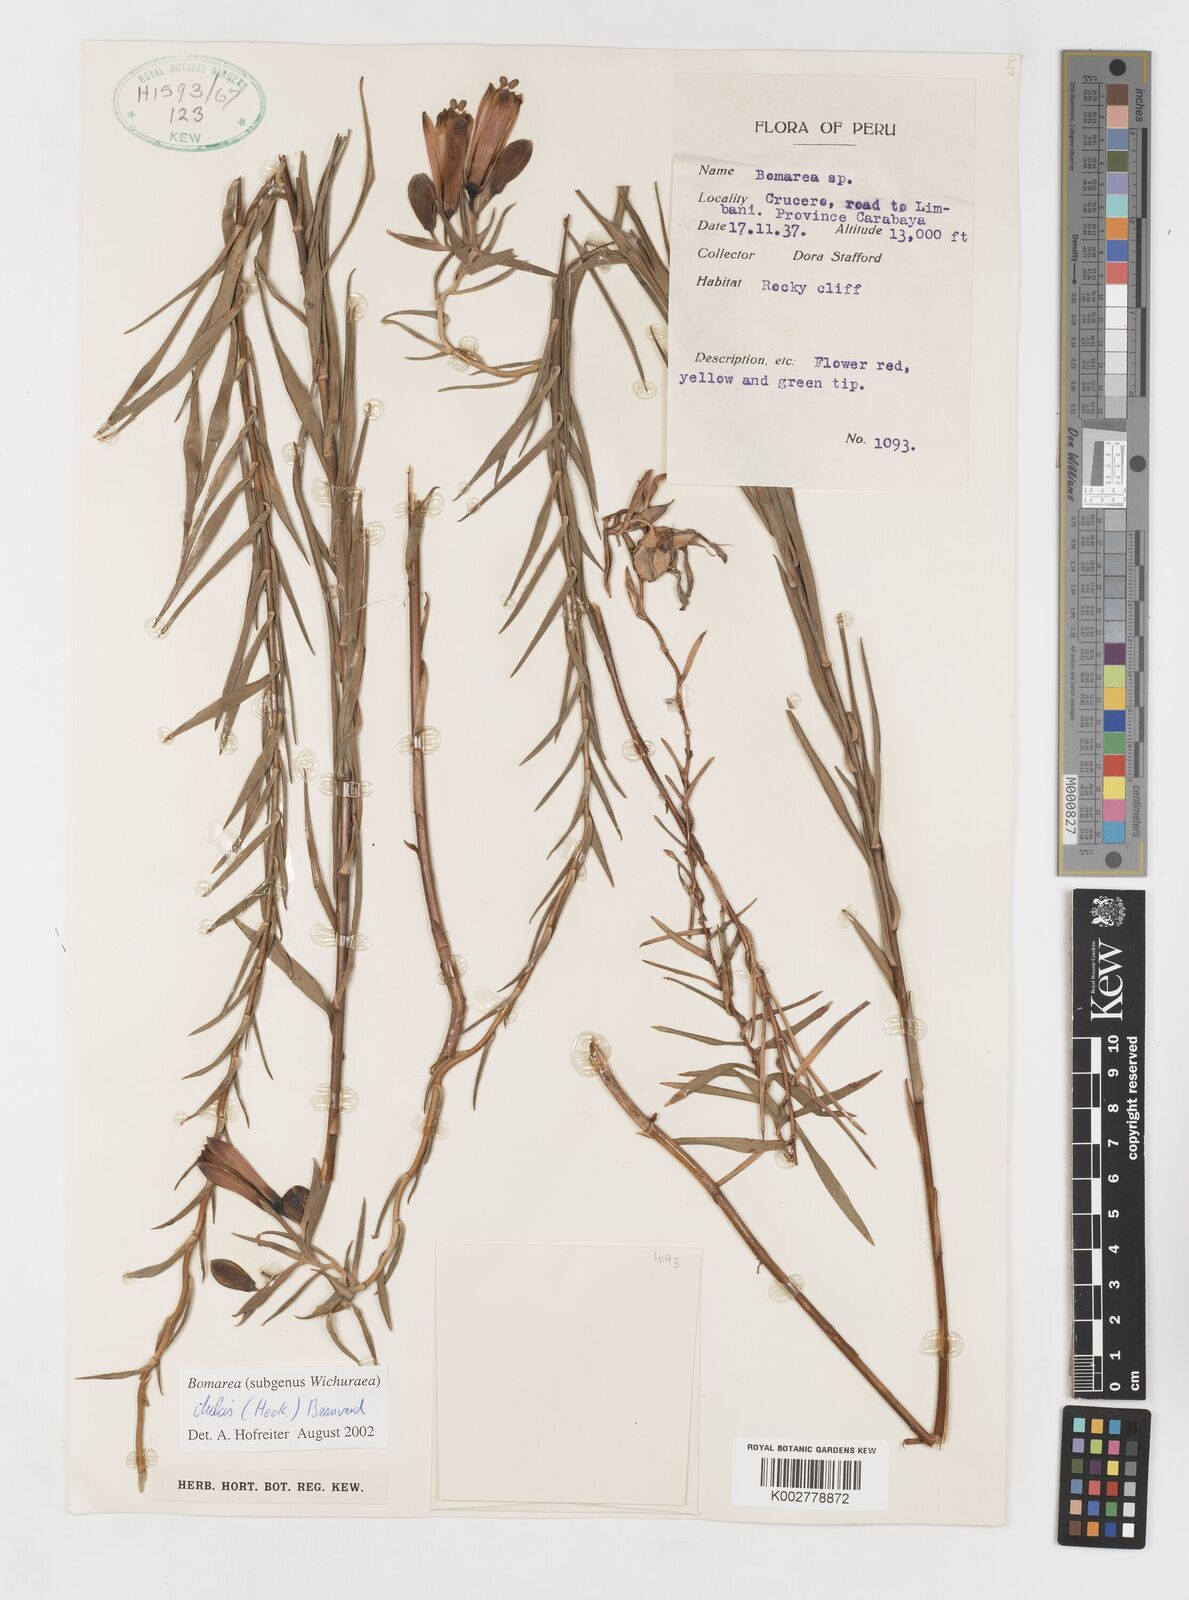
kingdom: Plantae
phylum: Tracheophyta
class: Liliopsida
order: Liliales
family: Alstroemeriaceae
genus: Bomarea
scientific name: Bomarea dulcis
